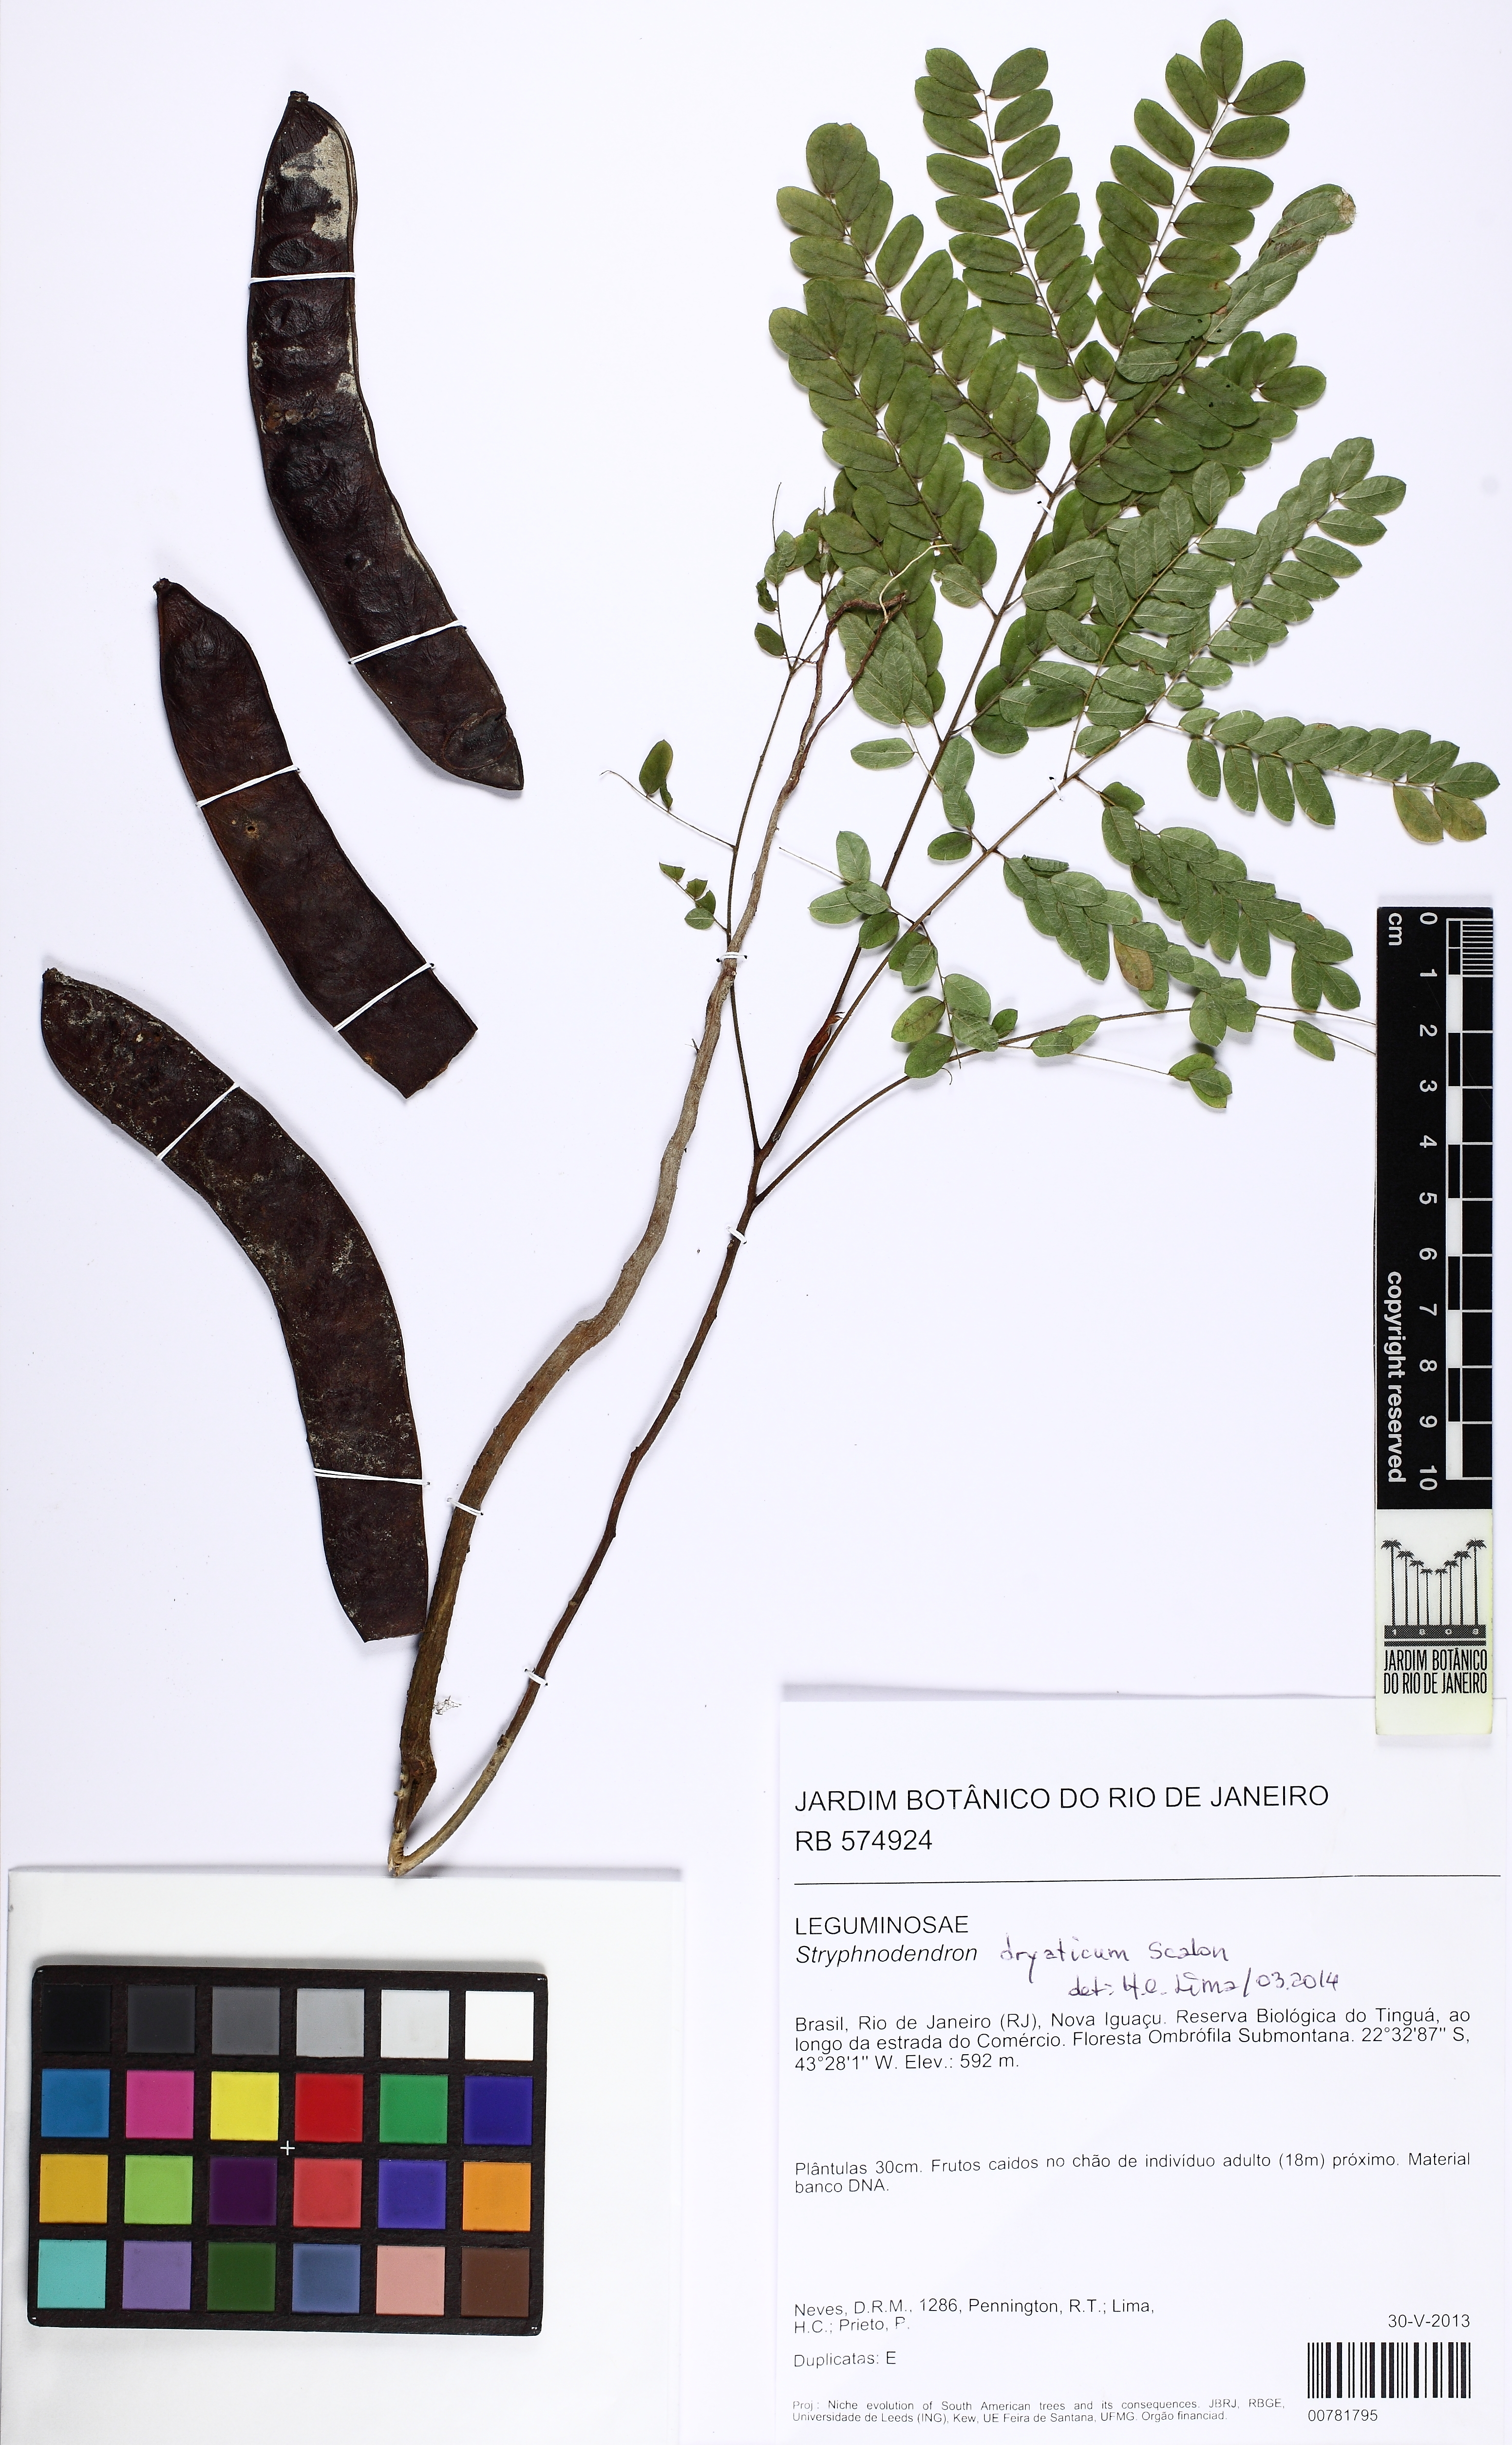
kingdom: Plantae
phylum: Tracheophyta
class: Magnoliopsida
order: Fabales
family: Fabaceae
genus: Stryphnodendron
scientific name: Stryphnodendron dryaticum
